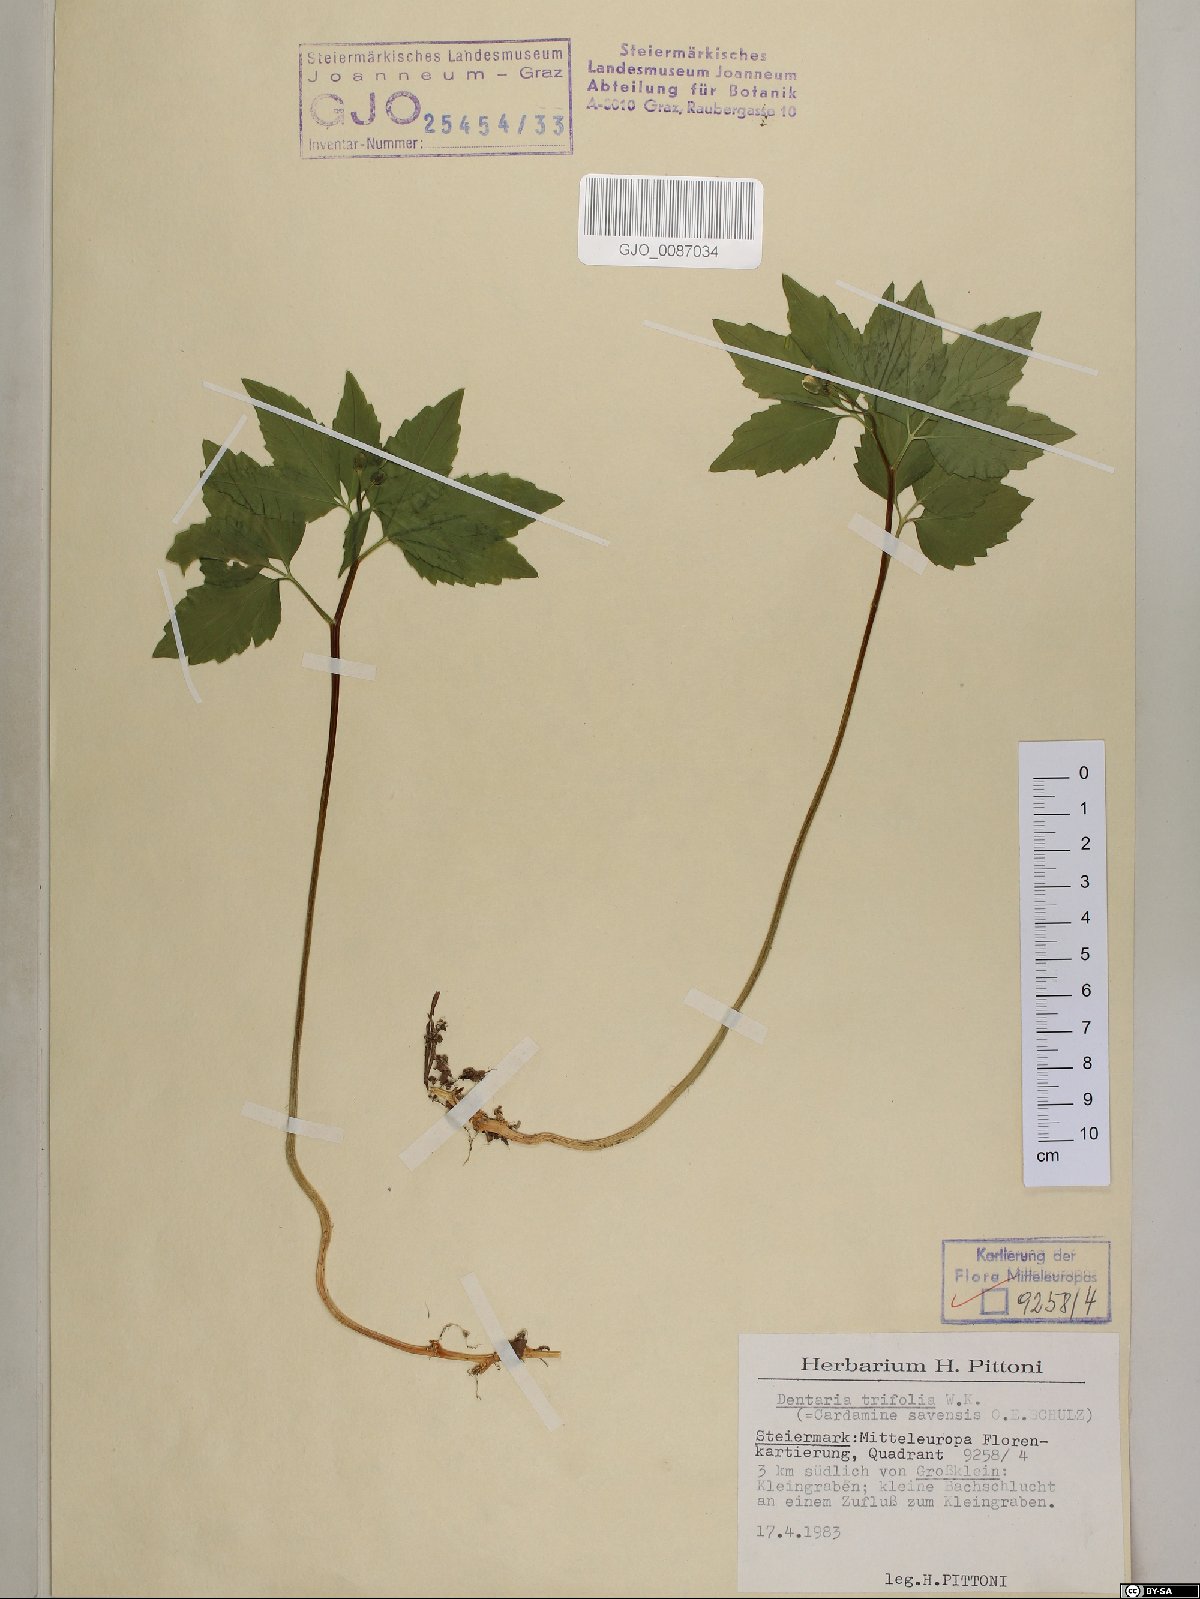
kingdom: Plantae
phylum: Tracheophyta
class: Magnoliopsida
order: Brassicales
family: Brassicaceae
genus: Cardamine
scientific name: Cardamine waldsteinii
